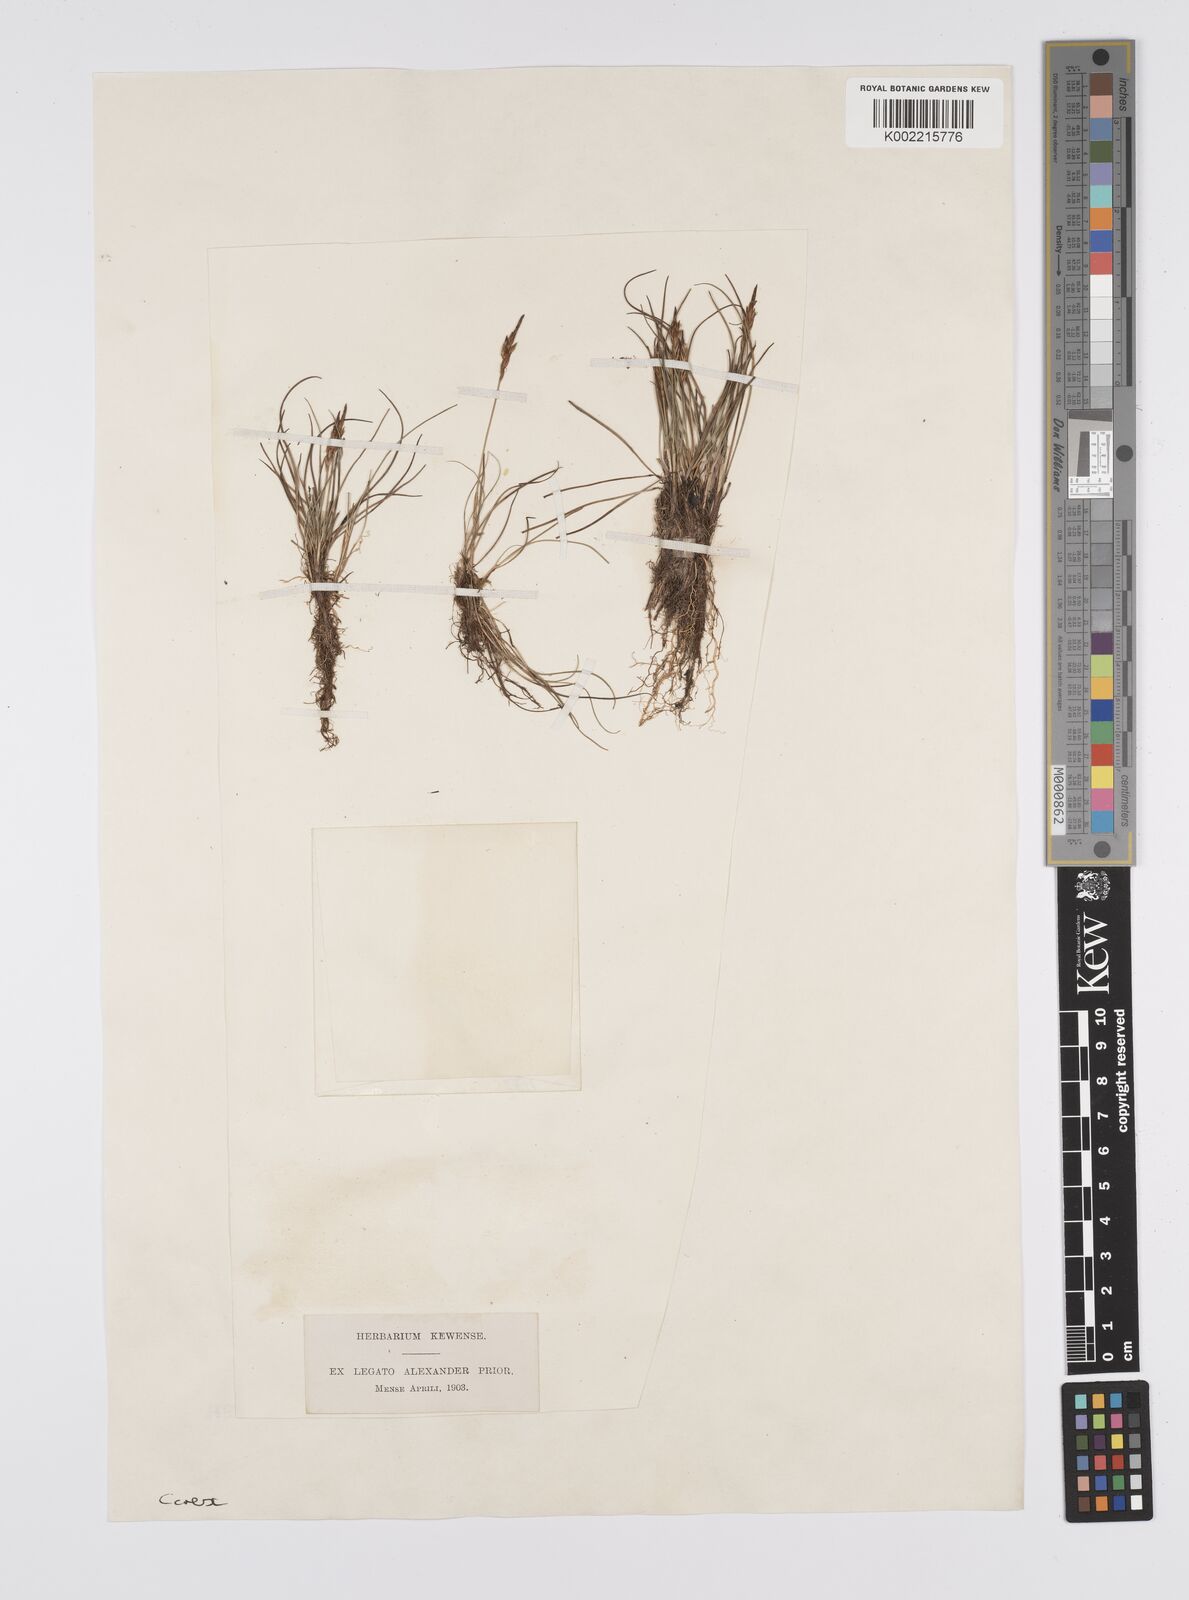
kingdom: Plantae
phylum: Tracheophyta
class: Liliopsida
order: Poales
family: Cyperaceae
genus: Carex
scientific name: Carex
